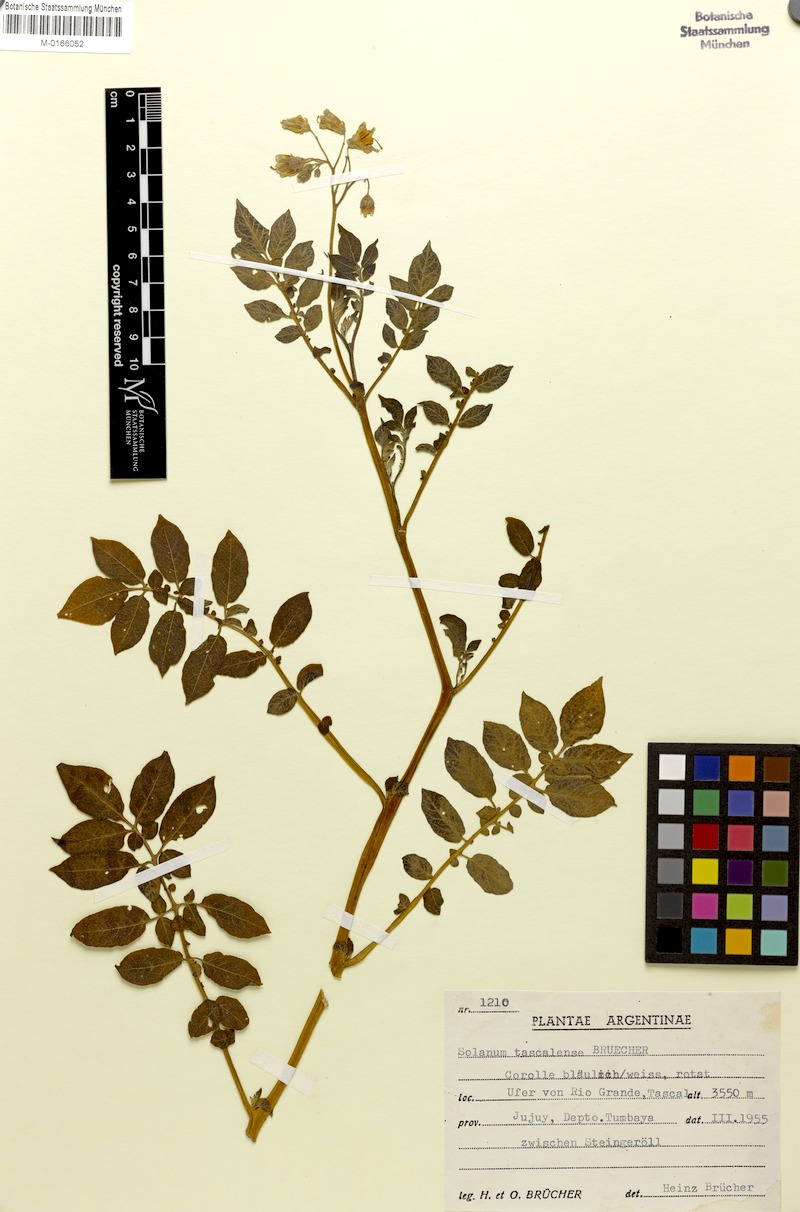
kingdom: Plantae
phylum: Tracheophyta
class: Magnoliopsida
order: Solanales
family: Solanaceae
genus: Solanum
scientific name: Solanum tuberosum
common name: Potato
